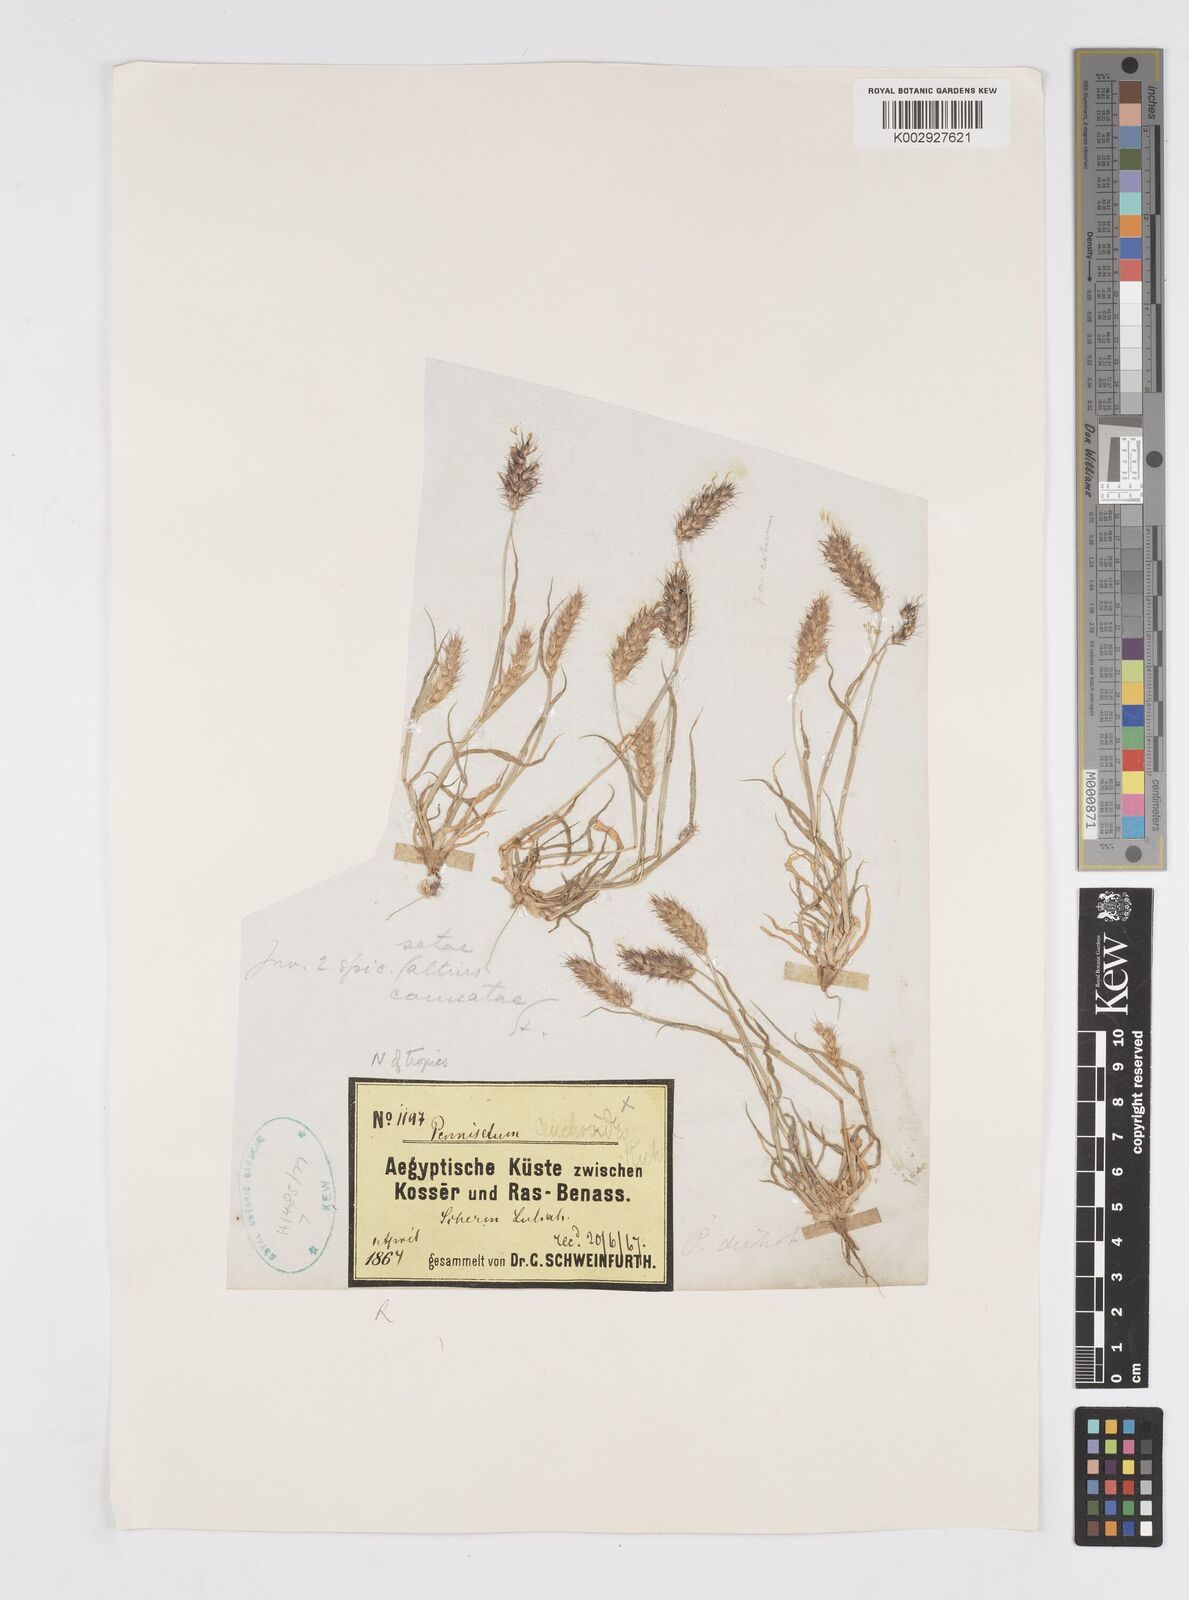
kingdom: Plantae
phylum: Tracheophyta
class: Liliopsida
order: Poales
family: Poaceae
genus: Cenchrus
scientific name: Cenchrus pennisetiformis
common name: Cloncurry
